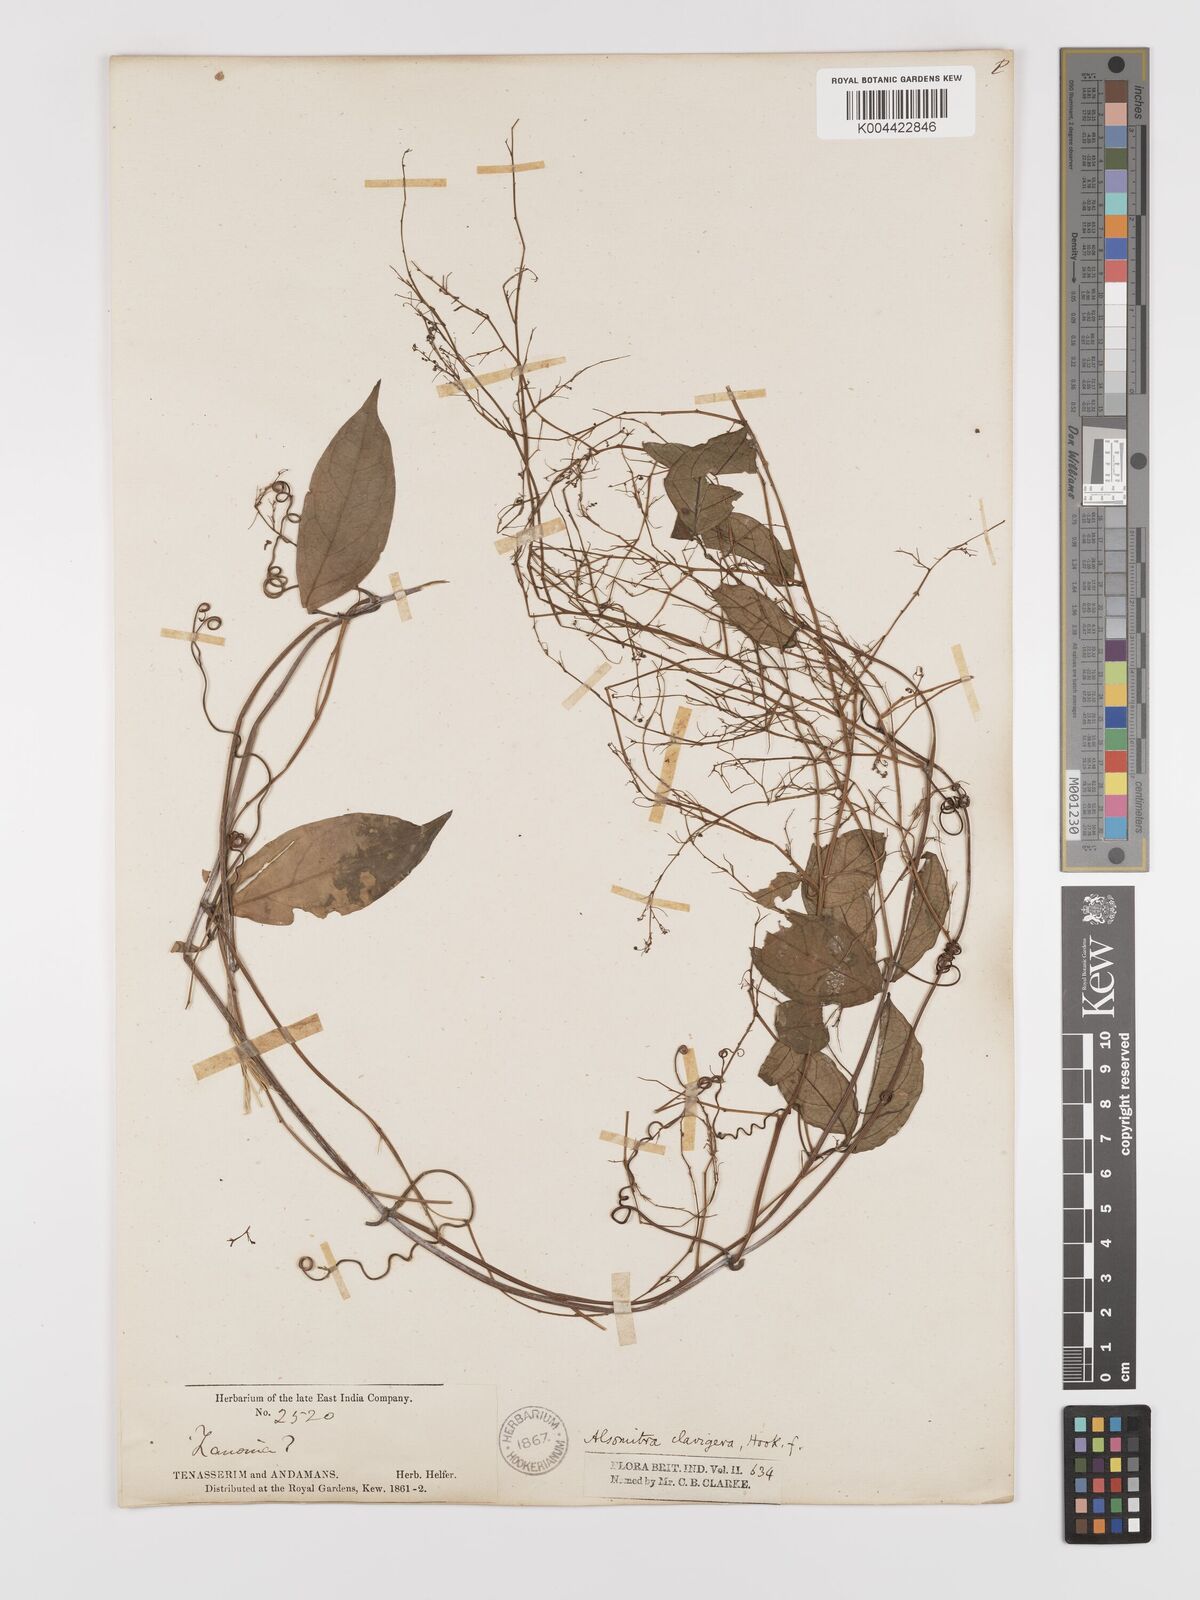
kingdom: Plantae
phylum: Tracheophyta
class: Magnoliopsida
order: Cucurbitales
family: Cucurbitaceae
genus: Neoalsomitra
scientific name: Neoalsomitra clavigera
